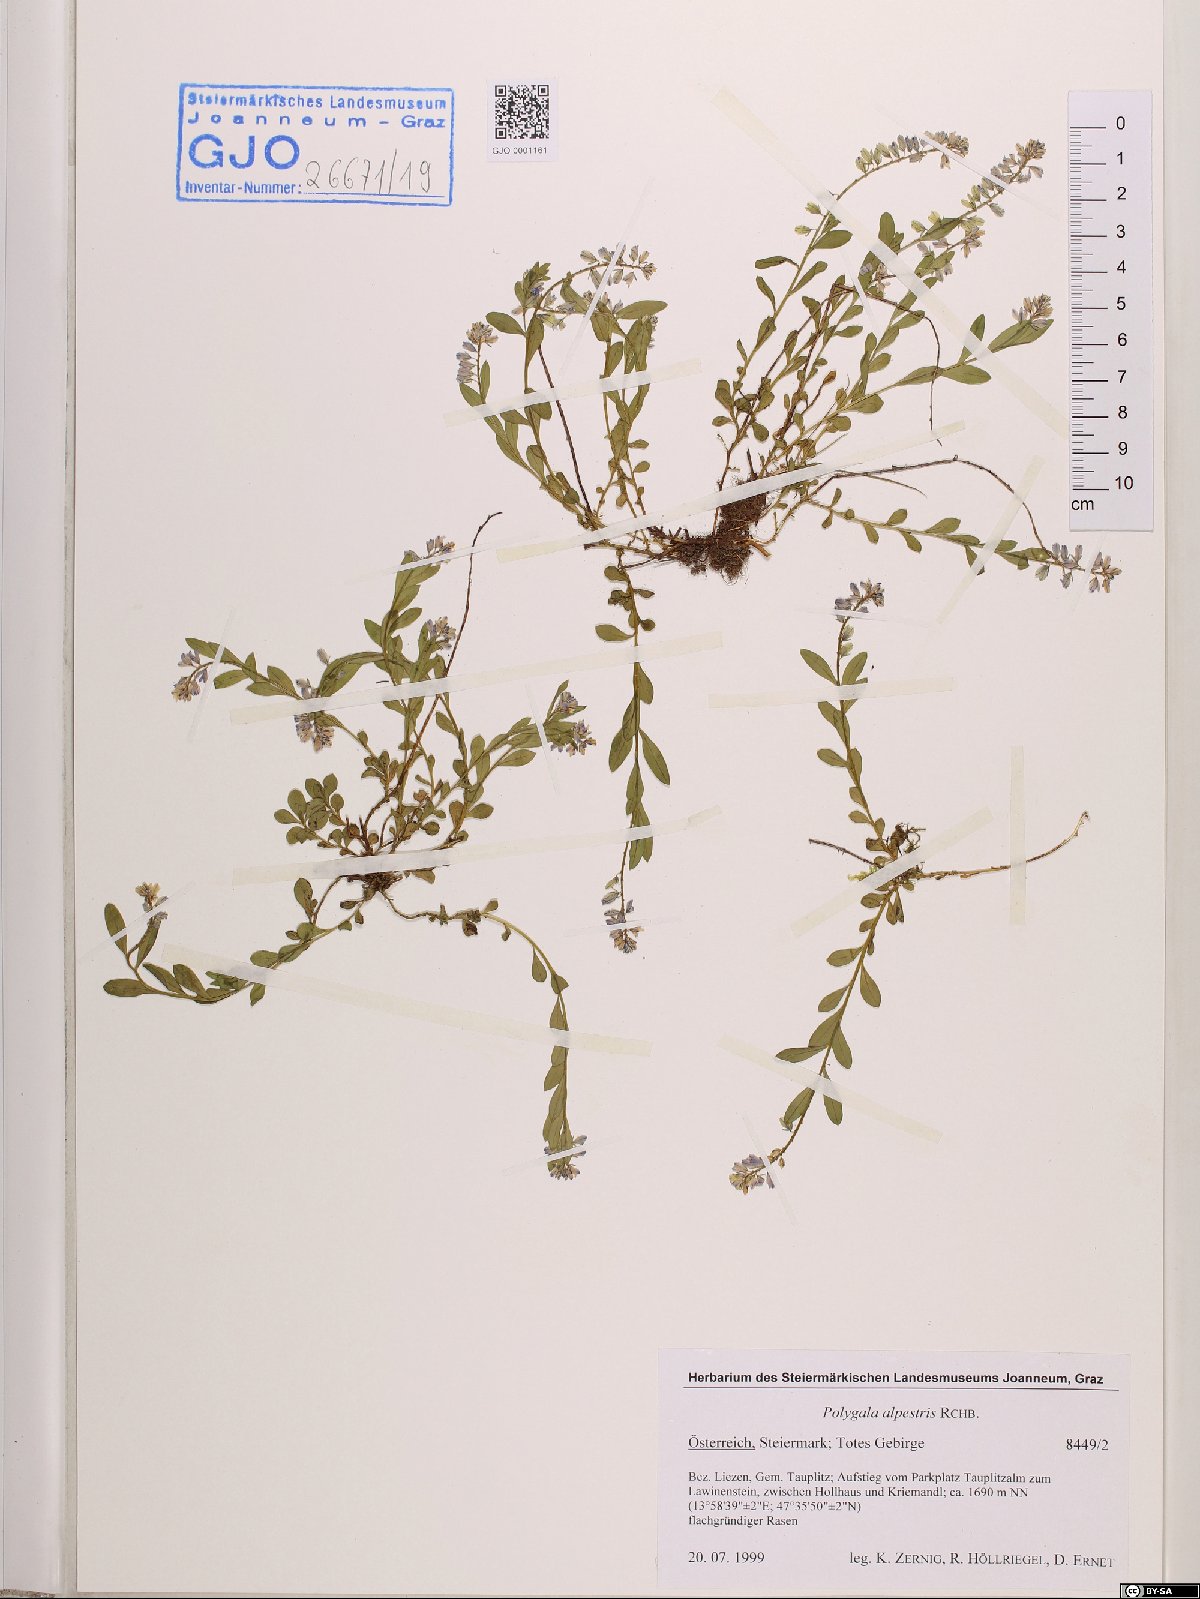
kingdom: Plantae
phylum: Tracheophyta
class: Magnoliopsida
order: Fabales
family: Polygalaceae
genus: Polygala
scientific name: Polygala alpestris
